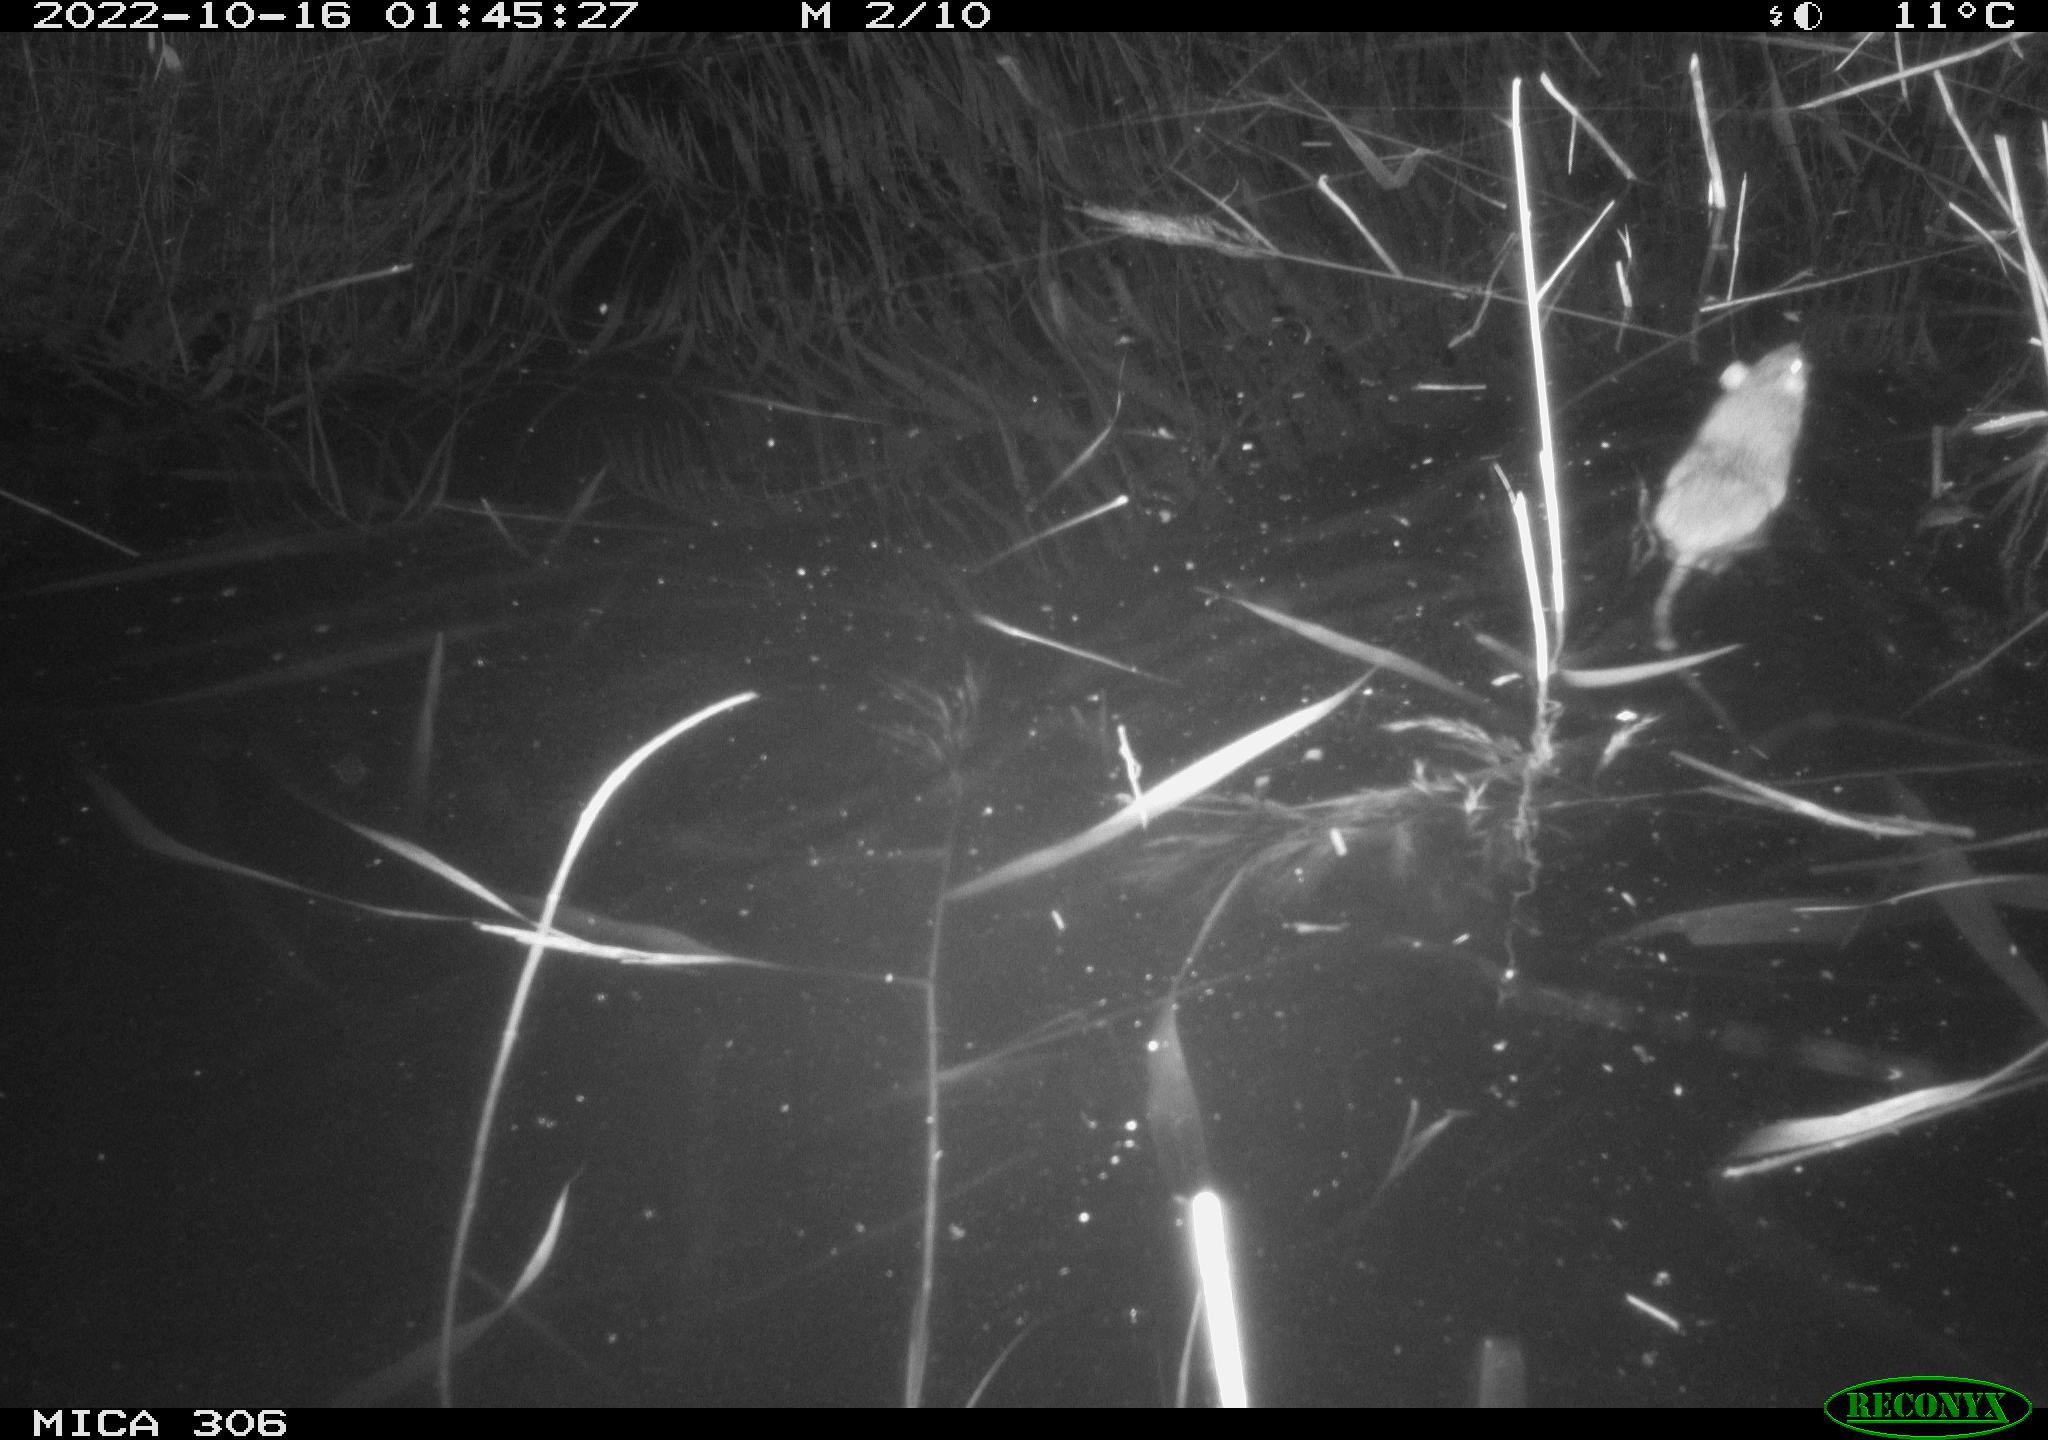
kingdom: Animalia
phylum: Chordata
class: Mammalia
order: Rodentia
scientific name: Rodentia
